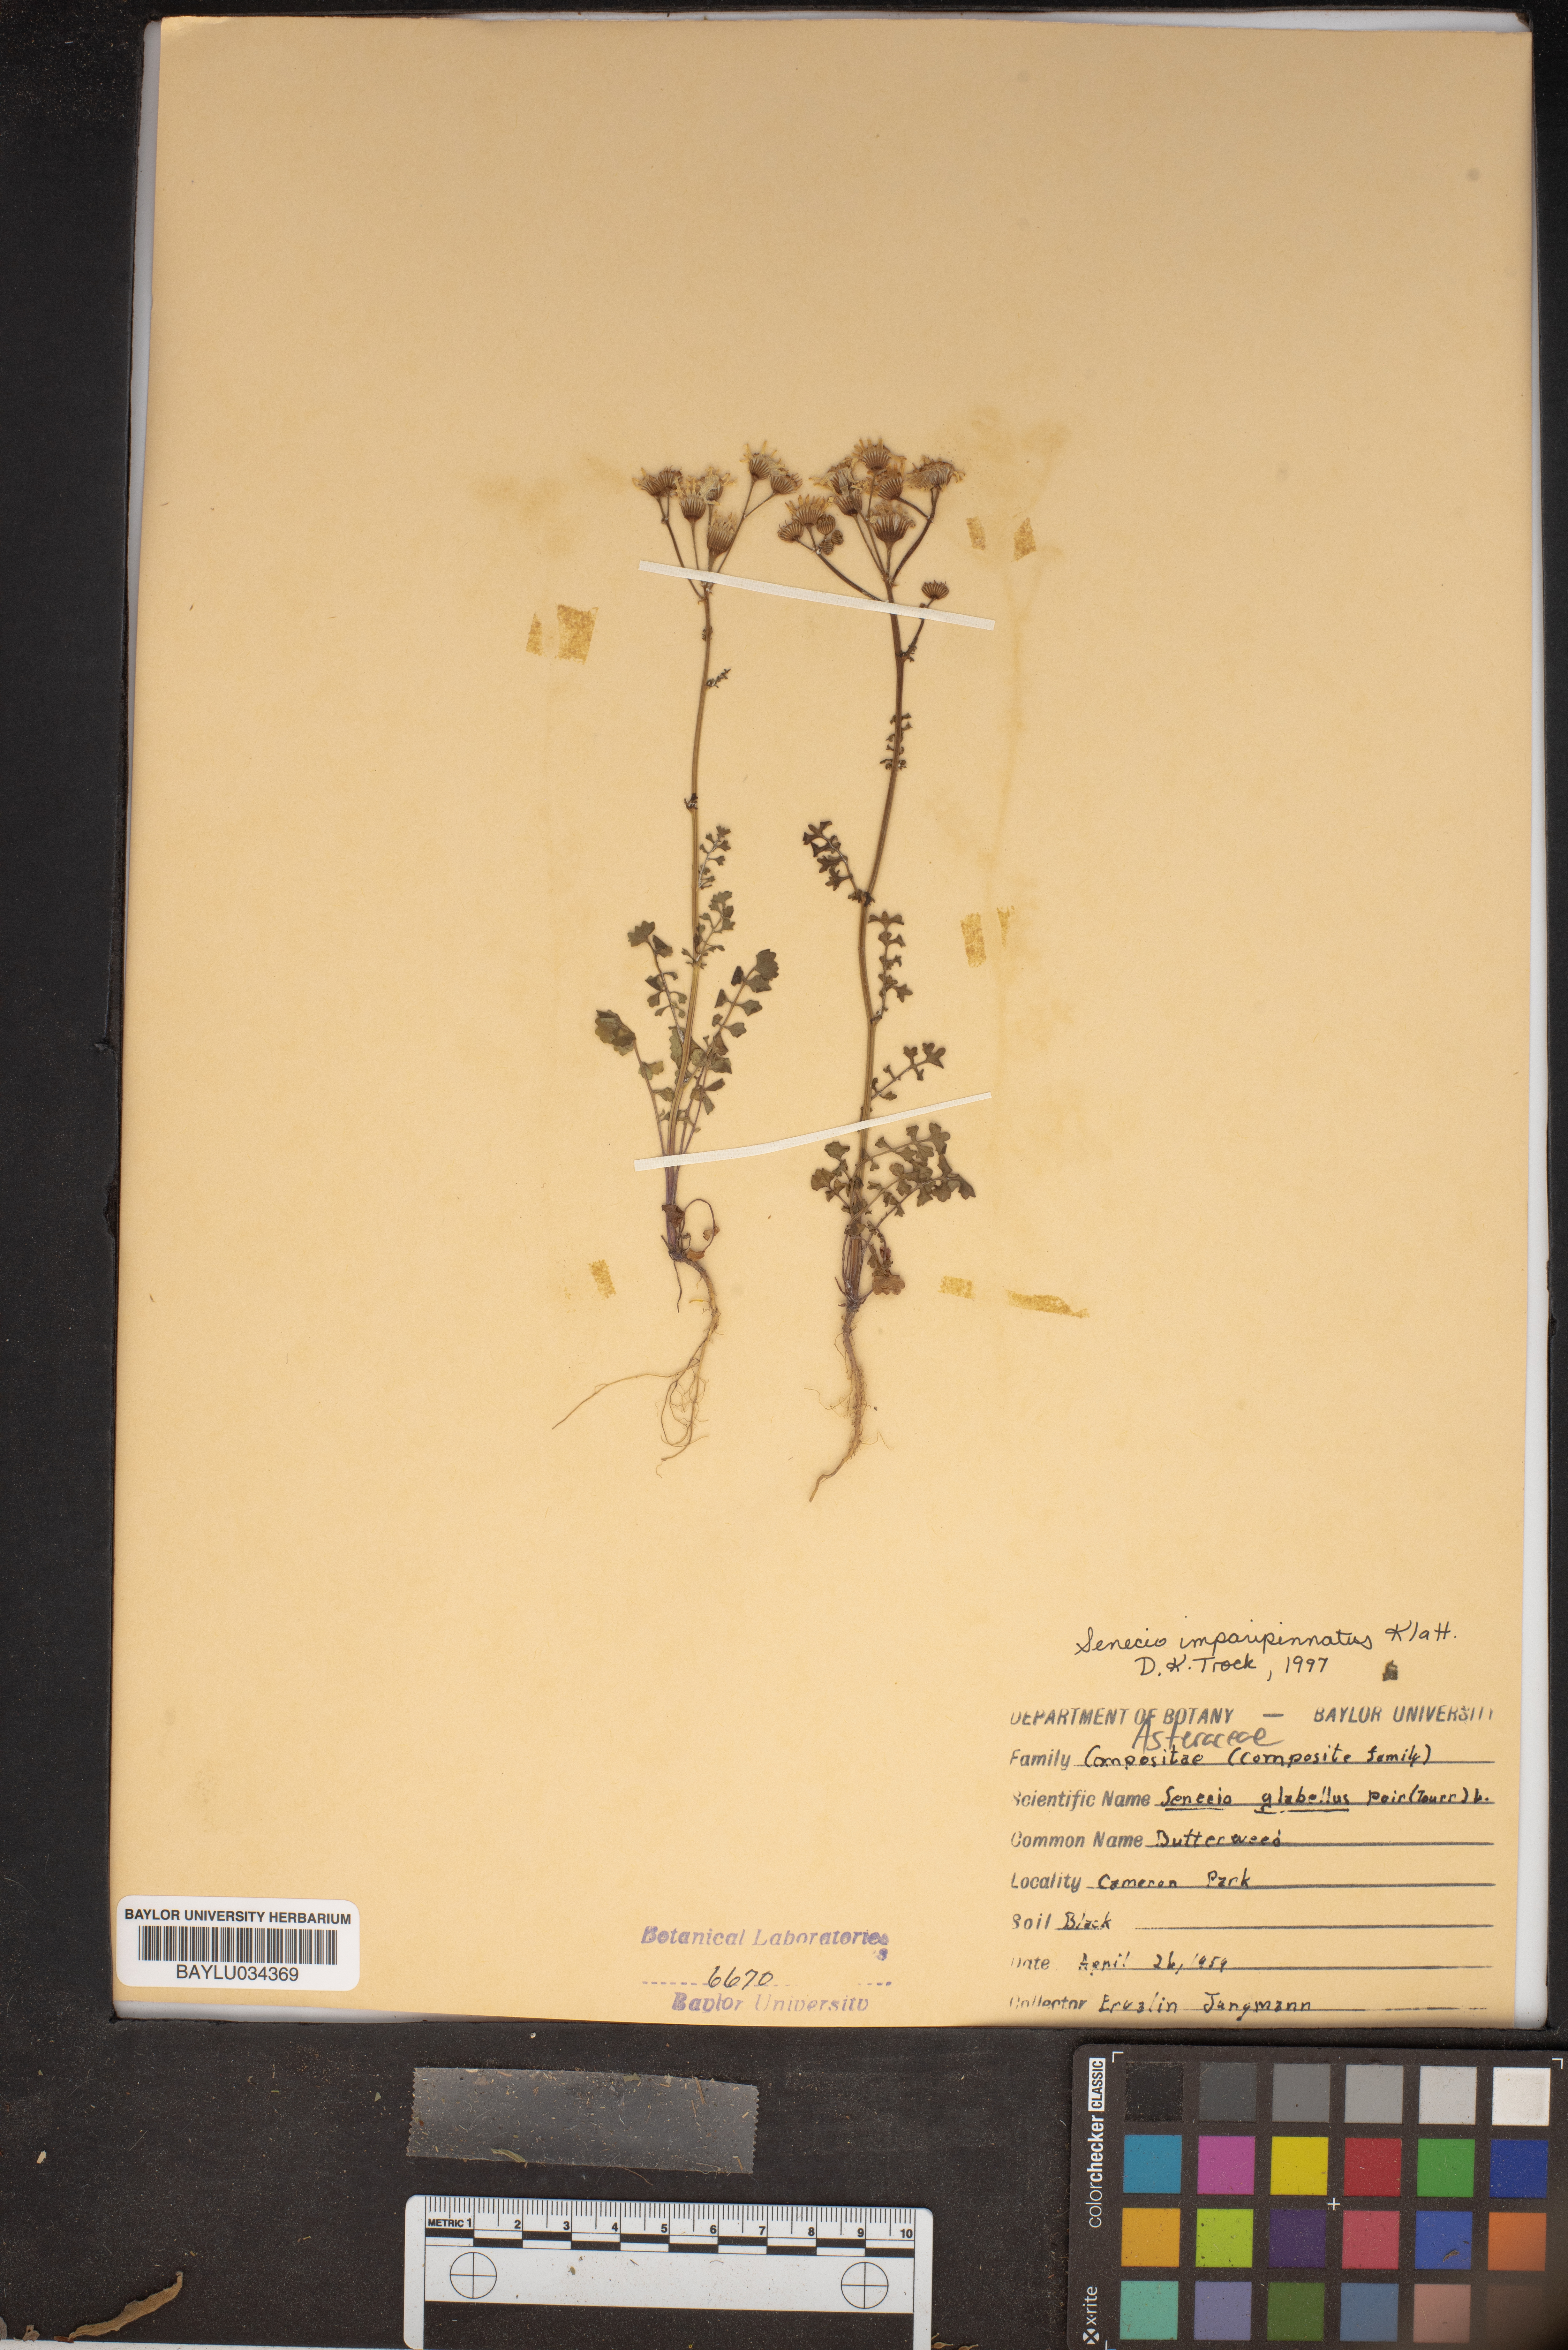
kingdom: Plantae
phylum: Tracheophyta
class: Magnoliopsida
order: Asterales
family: Asteraceae
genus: Tephroseris
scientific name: Tephroseris praticola
